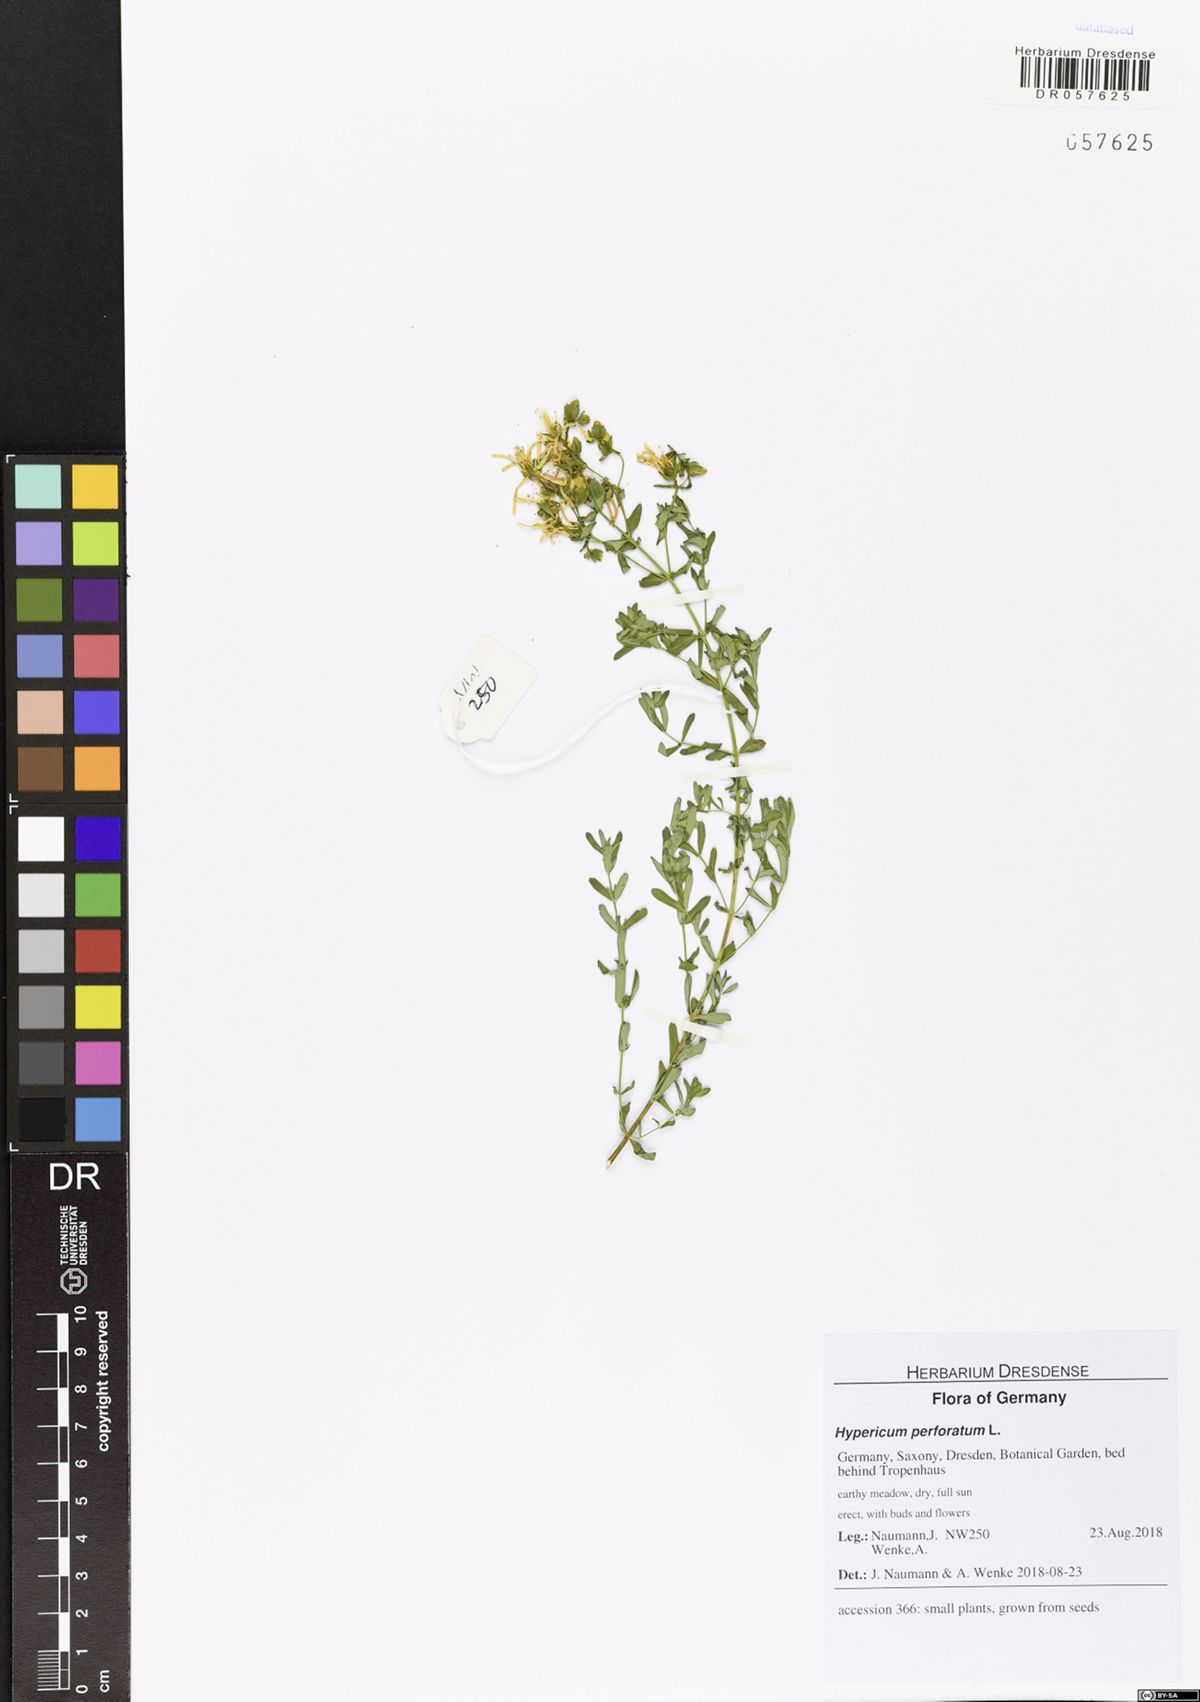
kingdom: Plantae
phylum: Tracheophyta
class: Magnoliopsida
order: Malpighiales
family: Hypericaceae
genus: Hypericum
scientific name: Hypericum perforatum
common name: Common st. johnswort
